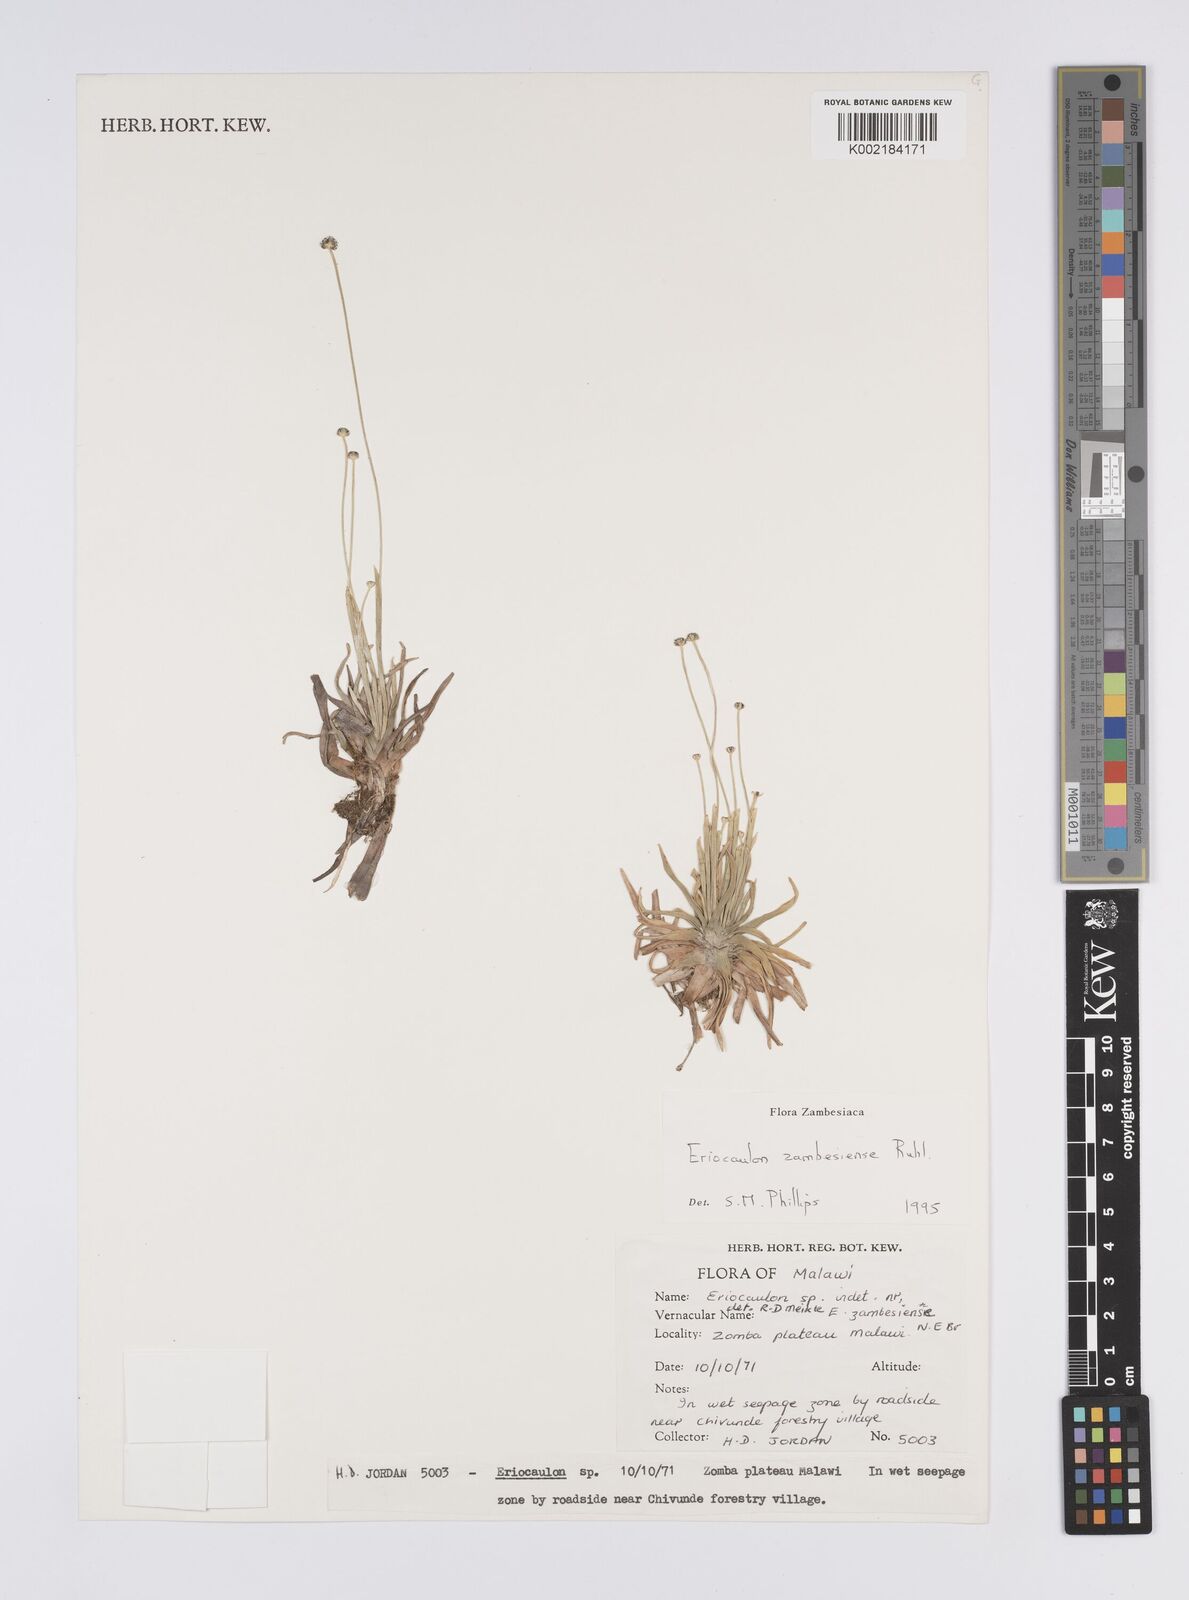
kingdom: Plantae
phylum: Tracheophyta
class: Liliopsida
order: Poales
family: Eriocaulaceae
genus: Eriocaulon
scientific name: Eriocaulon zambesiense
